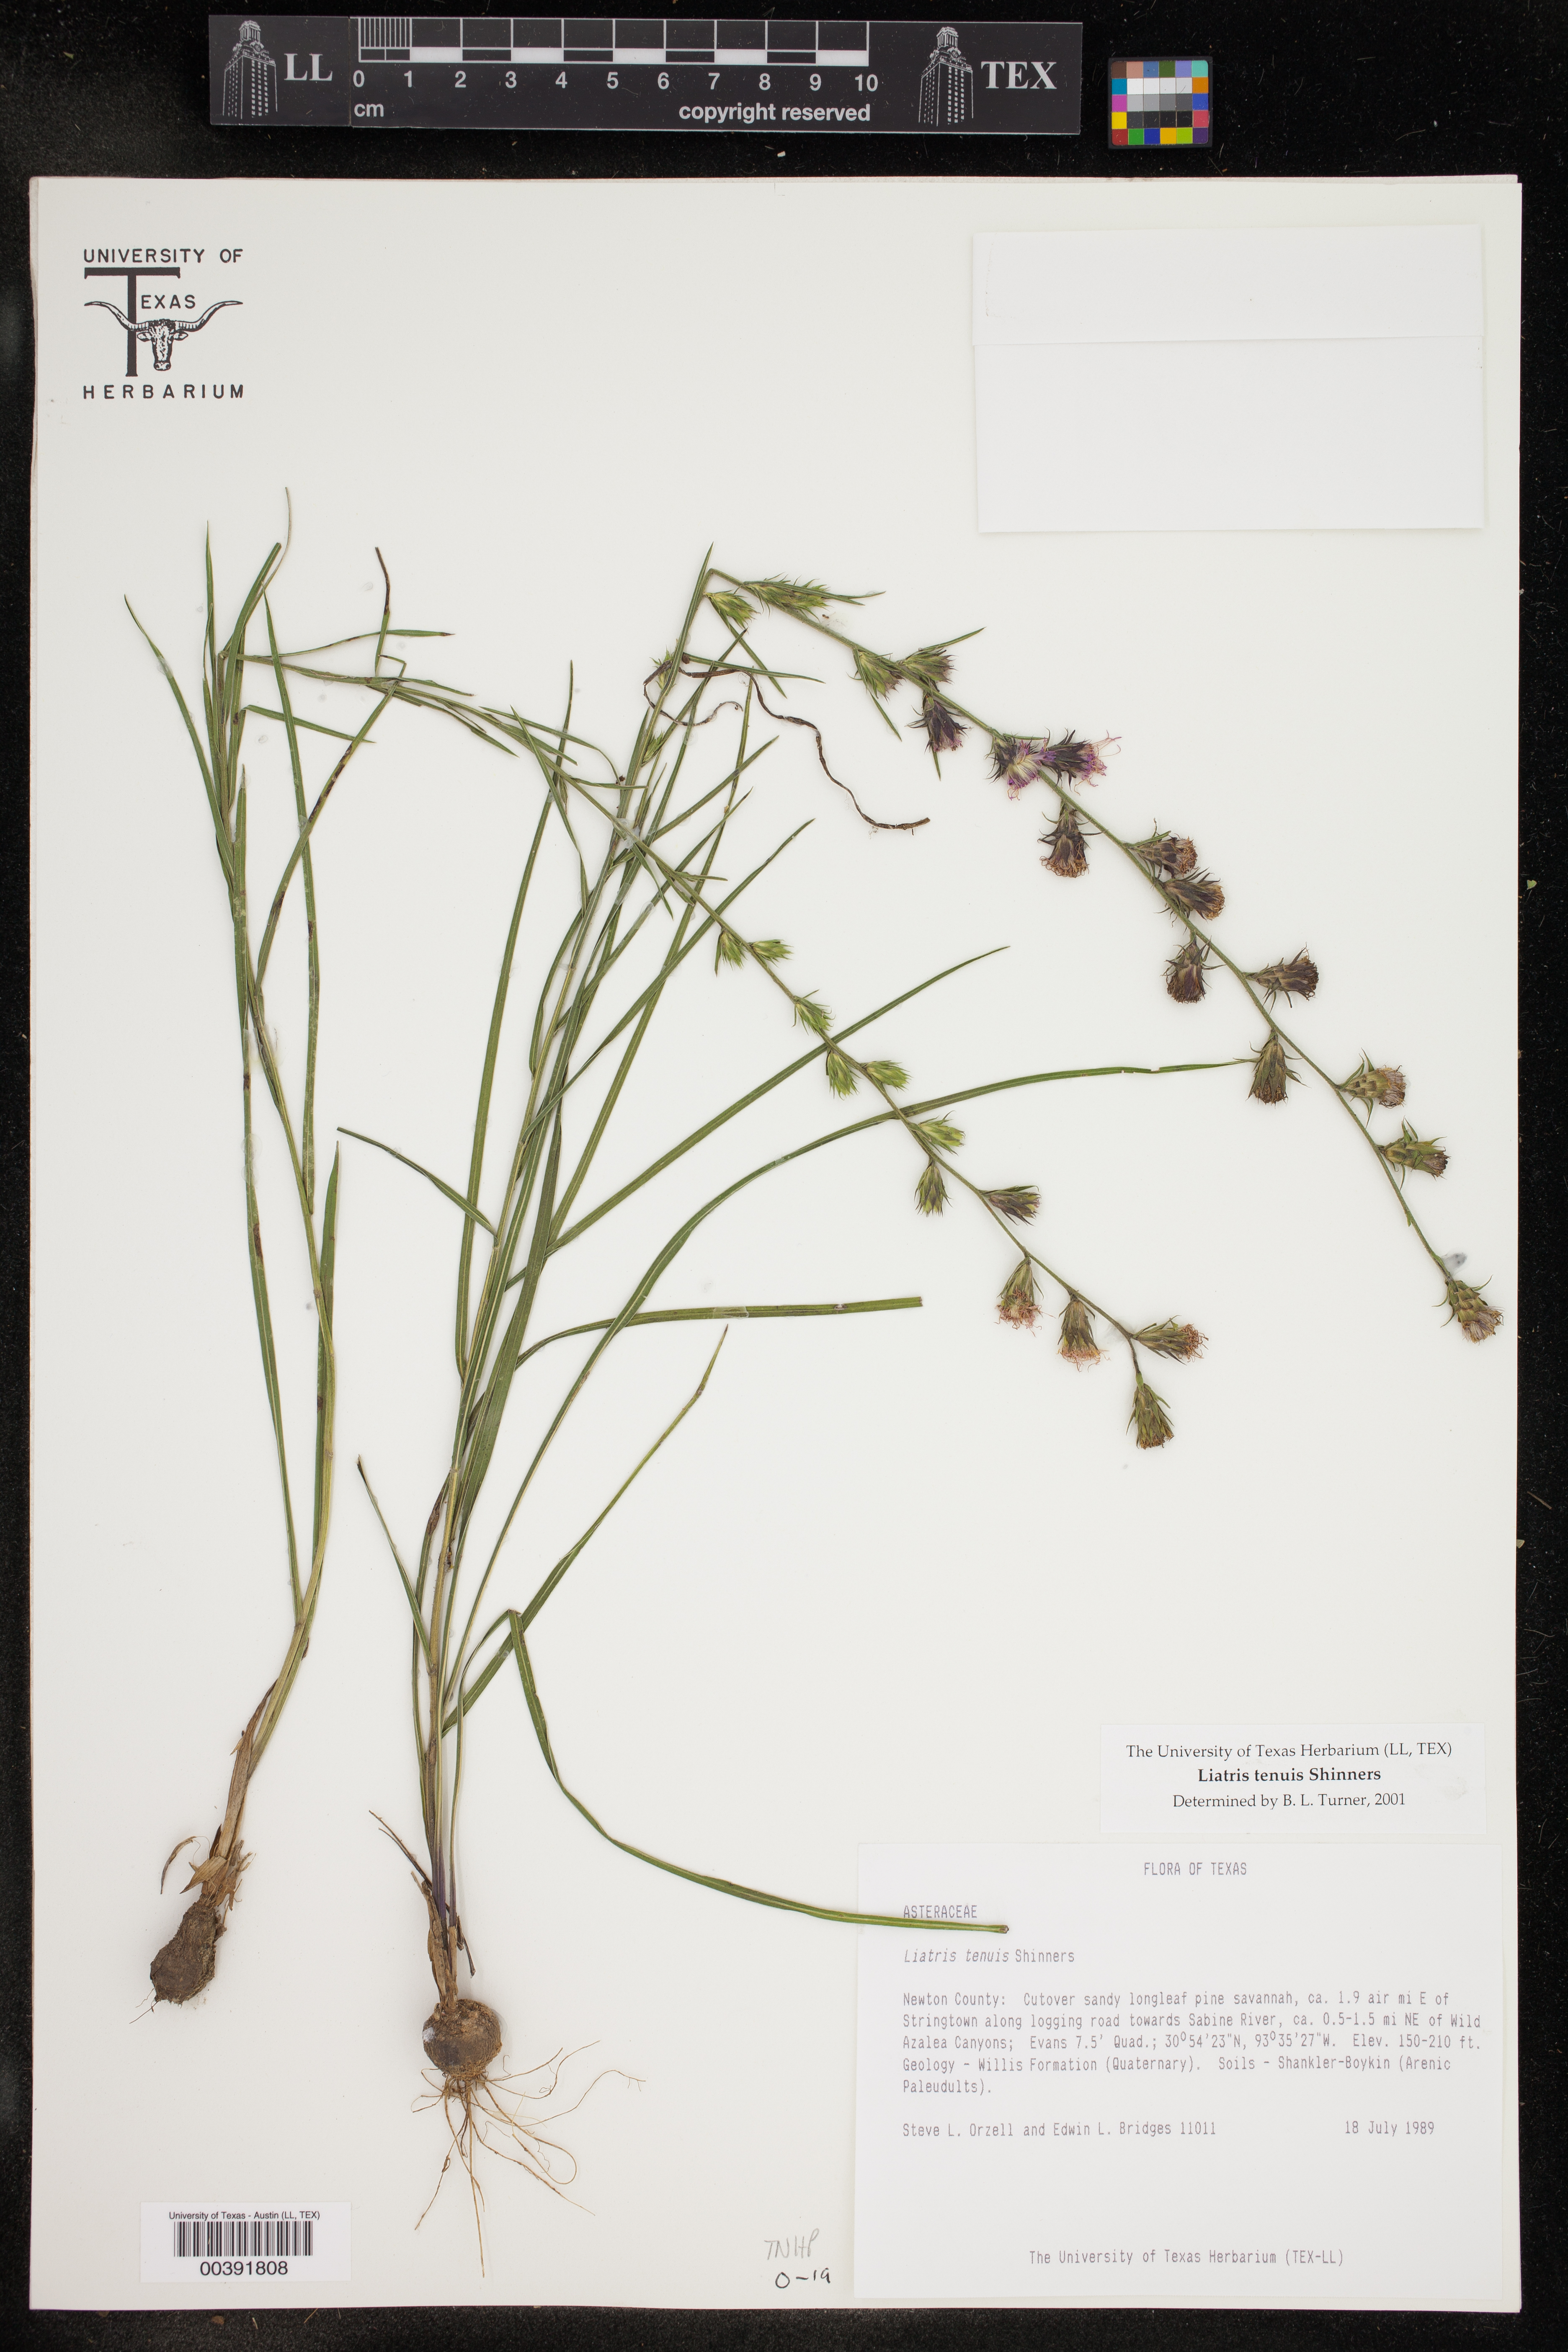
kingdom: Plantae
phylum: Tracheophyta
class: Magnoliopsida
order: Asterales
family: Asteraceae
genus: Liatris
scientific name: Liatris tenuis
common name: Shinner's gayfeather
